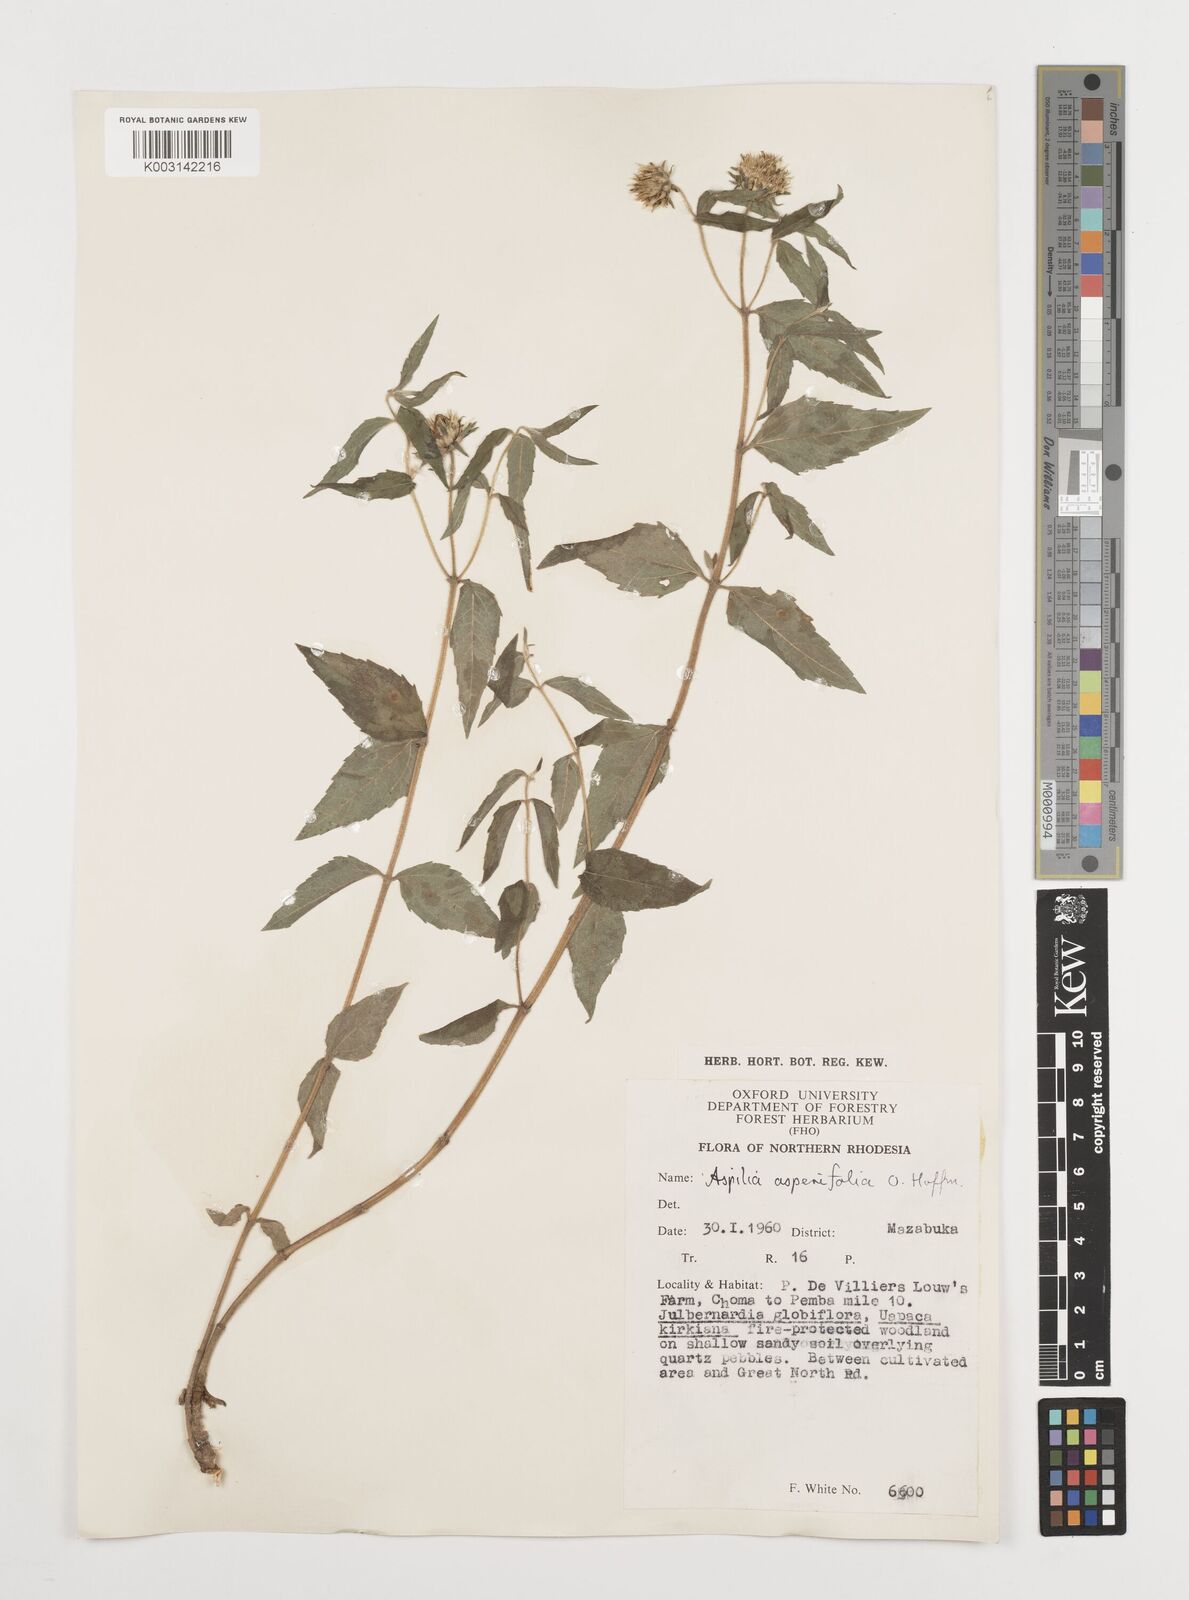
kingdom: Plantae
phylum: Tracheophyta
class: Magnoliopsida
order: Asterales
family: Asteraceae
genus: Aspilia
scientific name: Aspilia pluriseta
